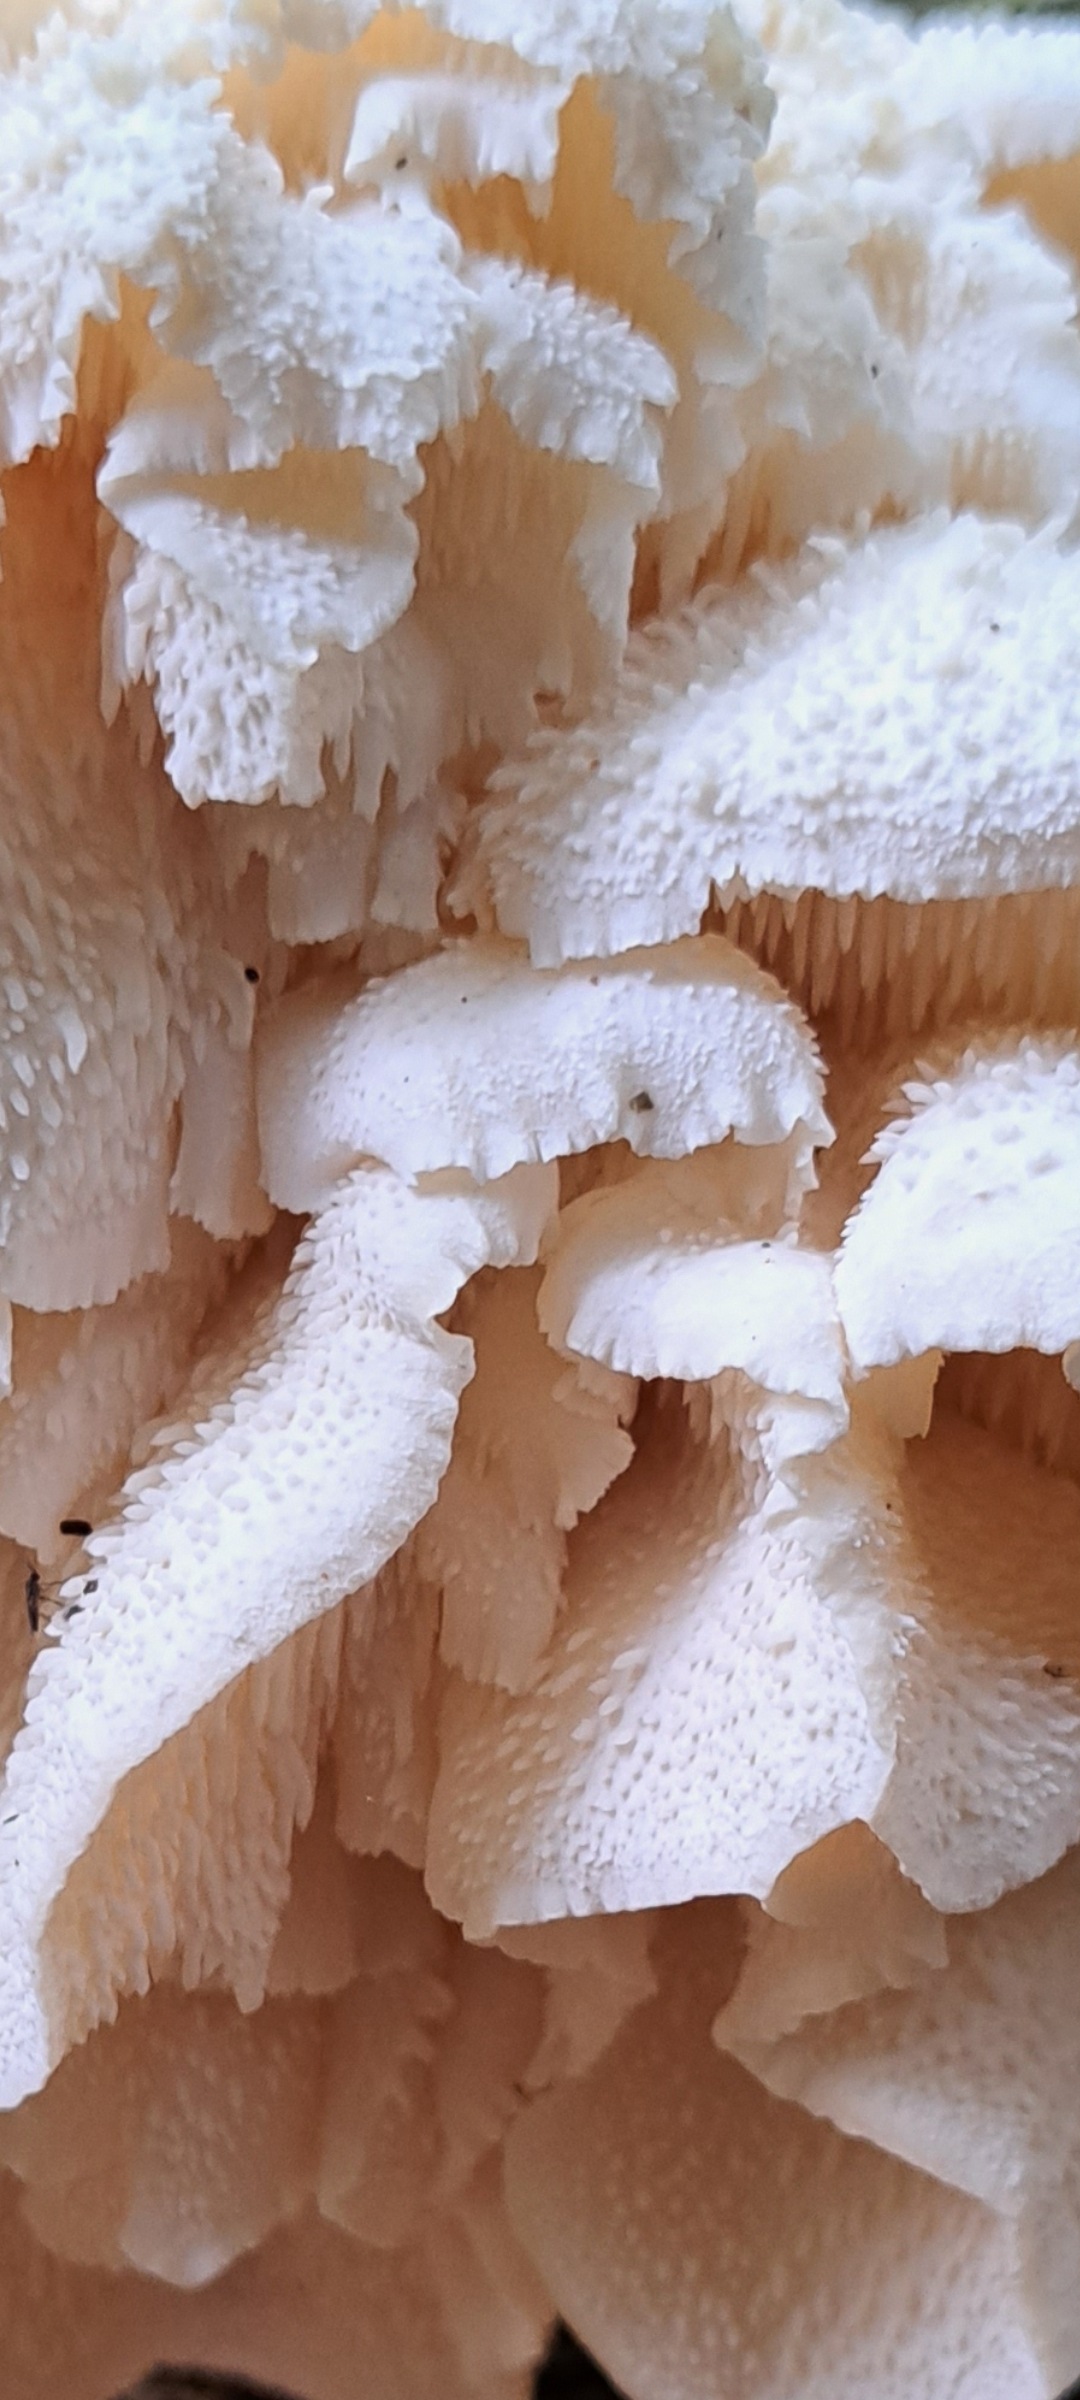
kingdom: Fungi
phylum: Basidiomycota
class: Agaricomycetes
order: Russulales
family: Hericiaceae
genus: Hericium
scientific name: Hericium cirrhatum
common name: børstepigsvamp
